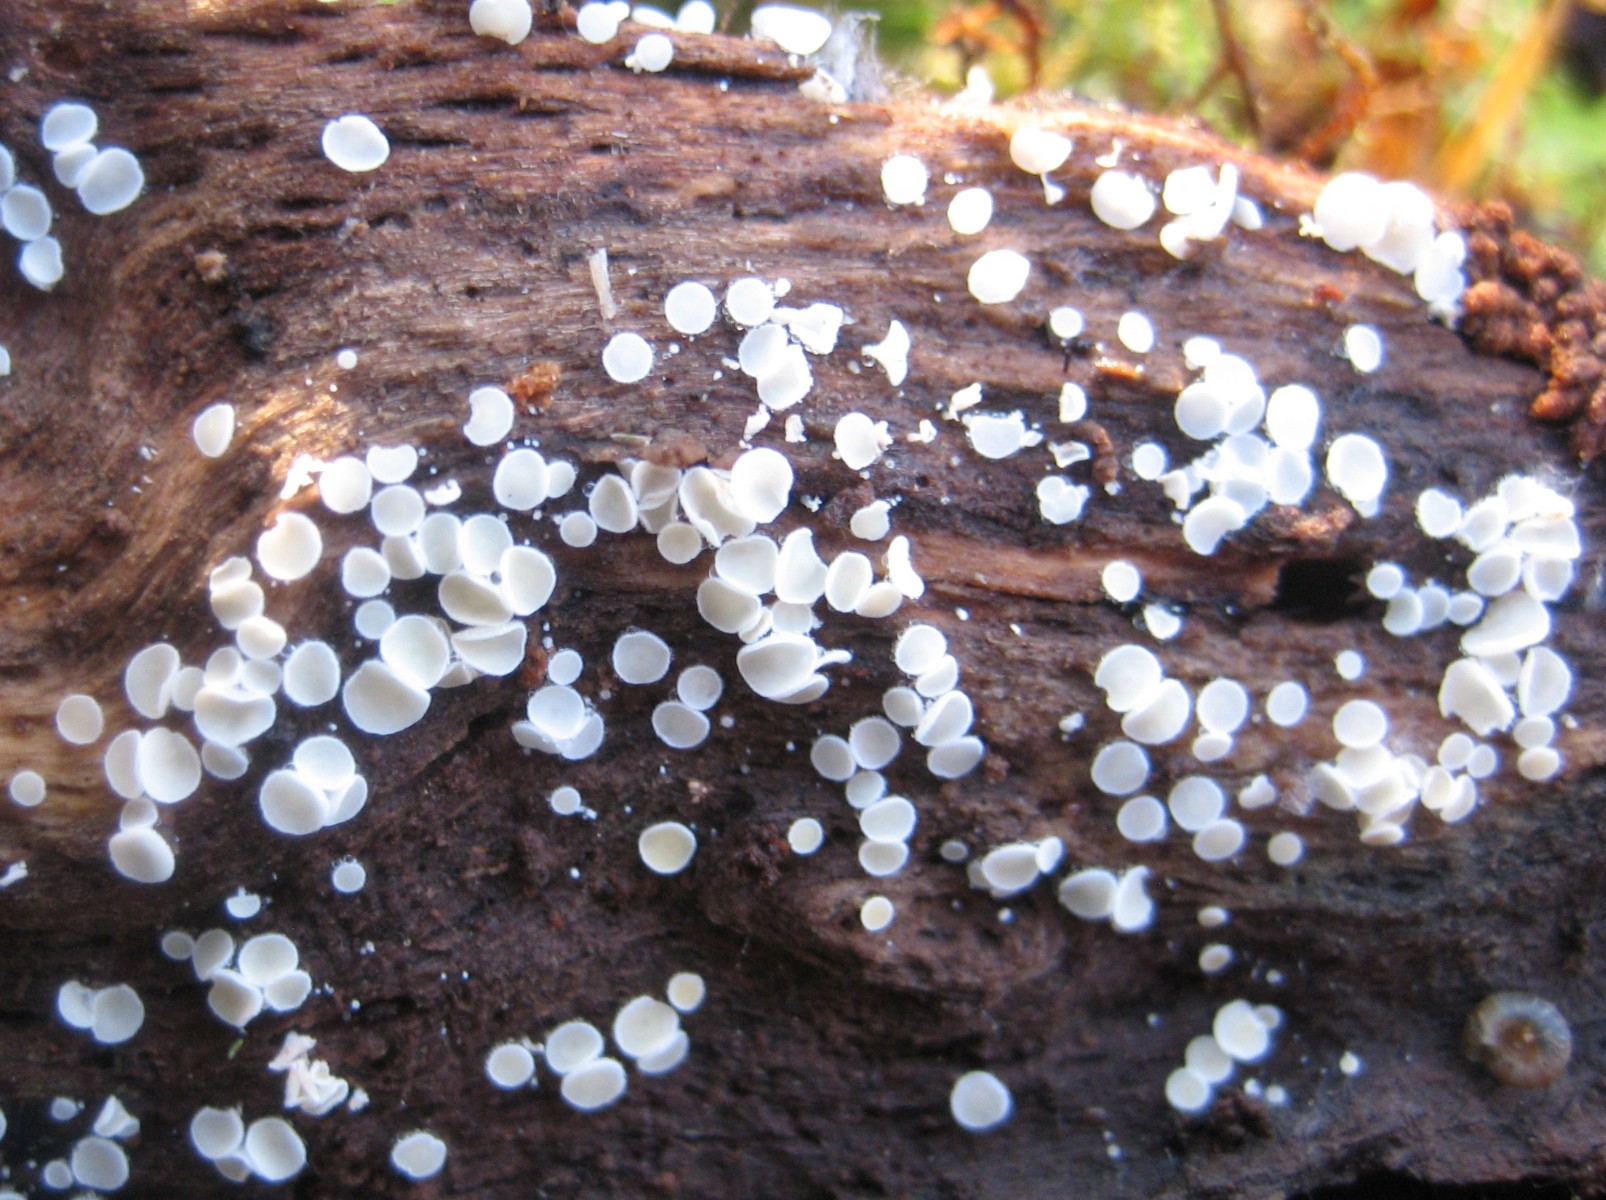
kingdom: Fungi
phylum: Ascomycota
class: Leotiomycetes
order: Helotiales
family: Lachnaceae
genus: Lachnum
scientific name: Lachnum
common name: frynseskive
